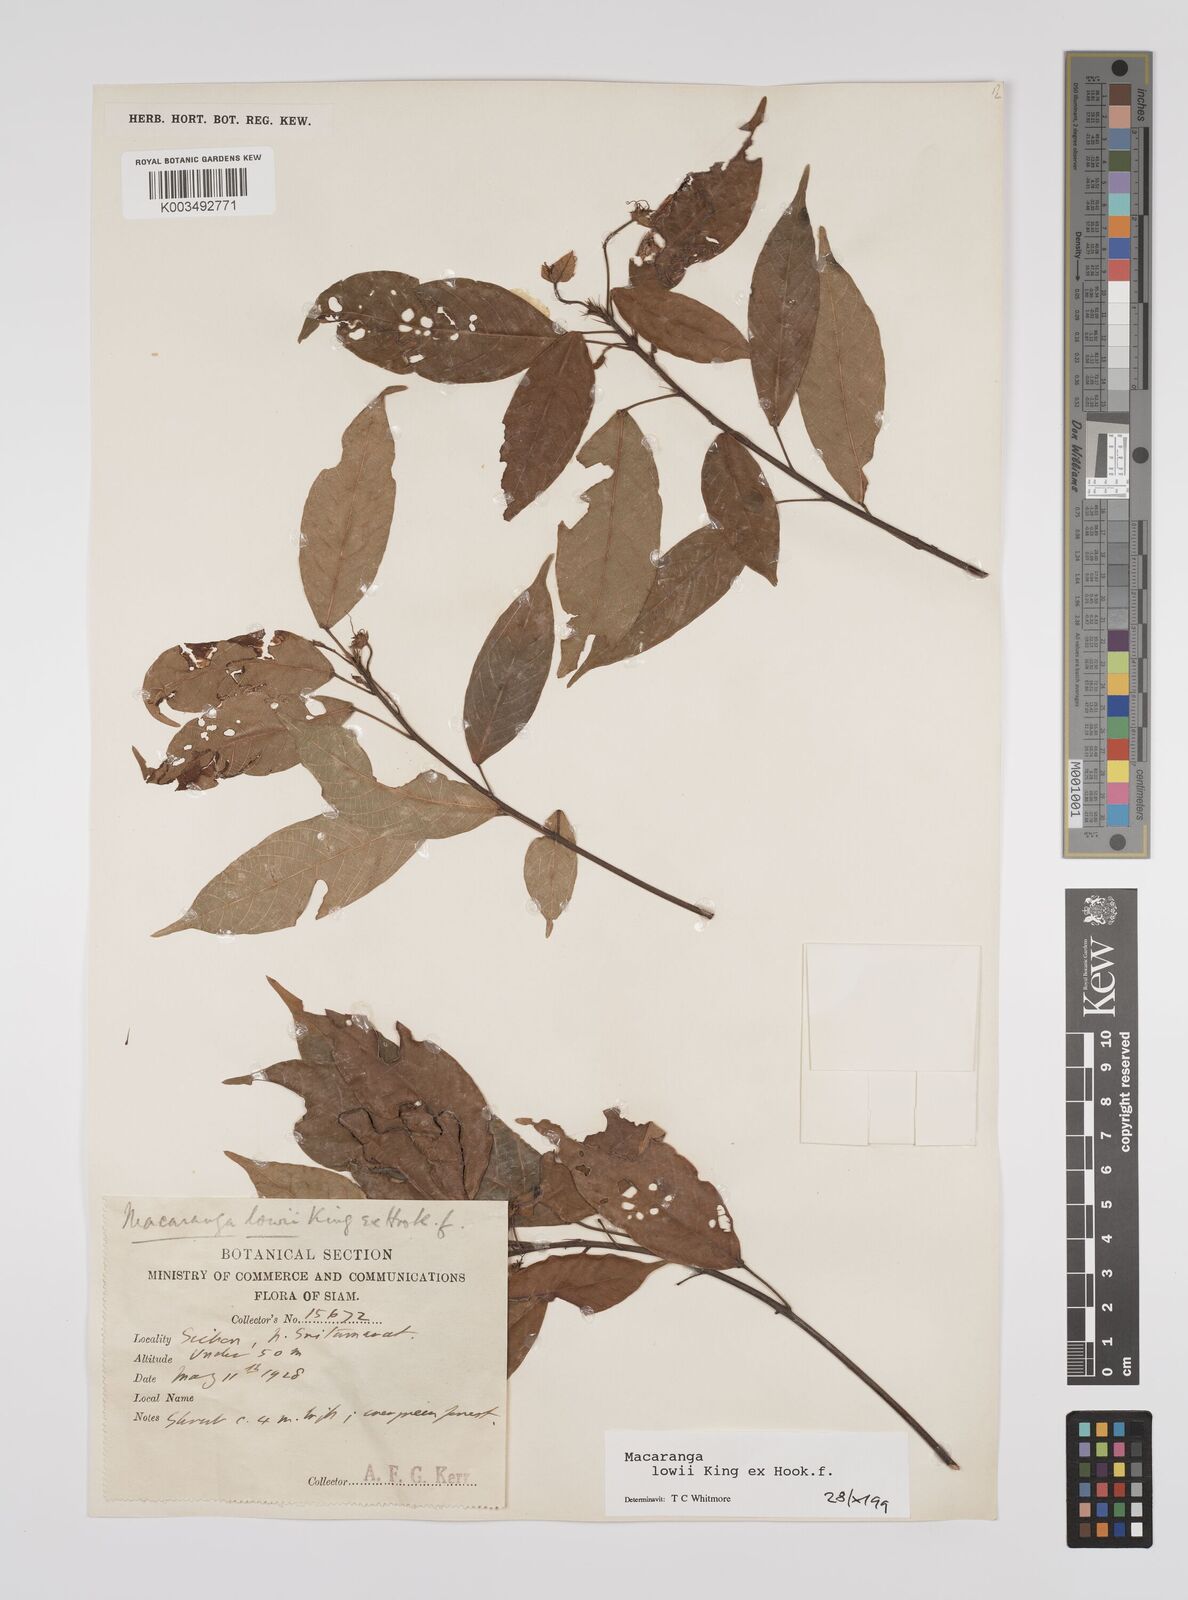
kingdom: Plantae
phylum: Tracheophyta
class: Magnoliopsida
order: Malpighiales
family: Euphorbiaceae
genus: Macaranga
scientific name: Macaranga lowii
